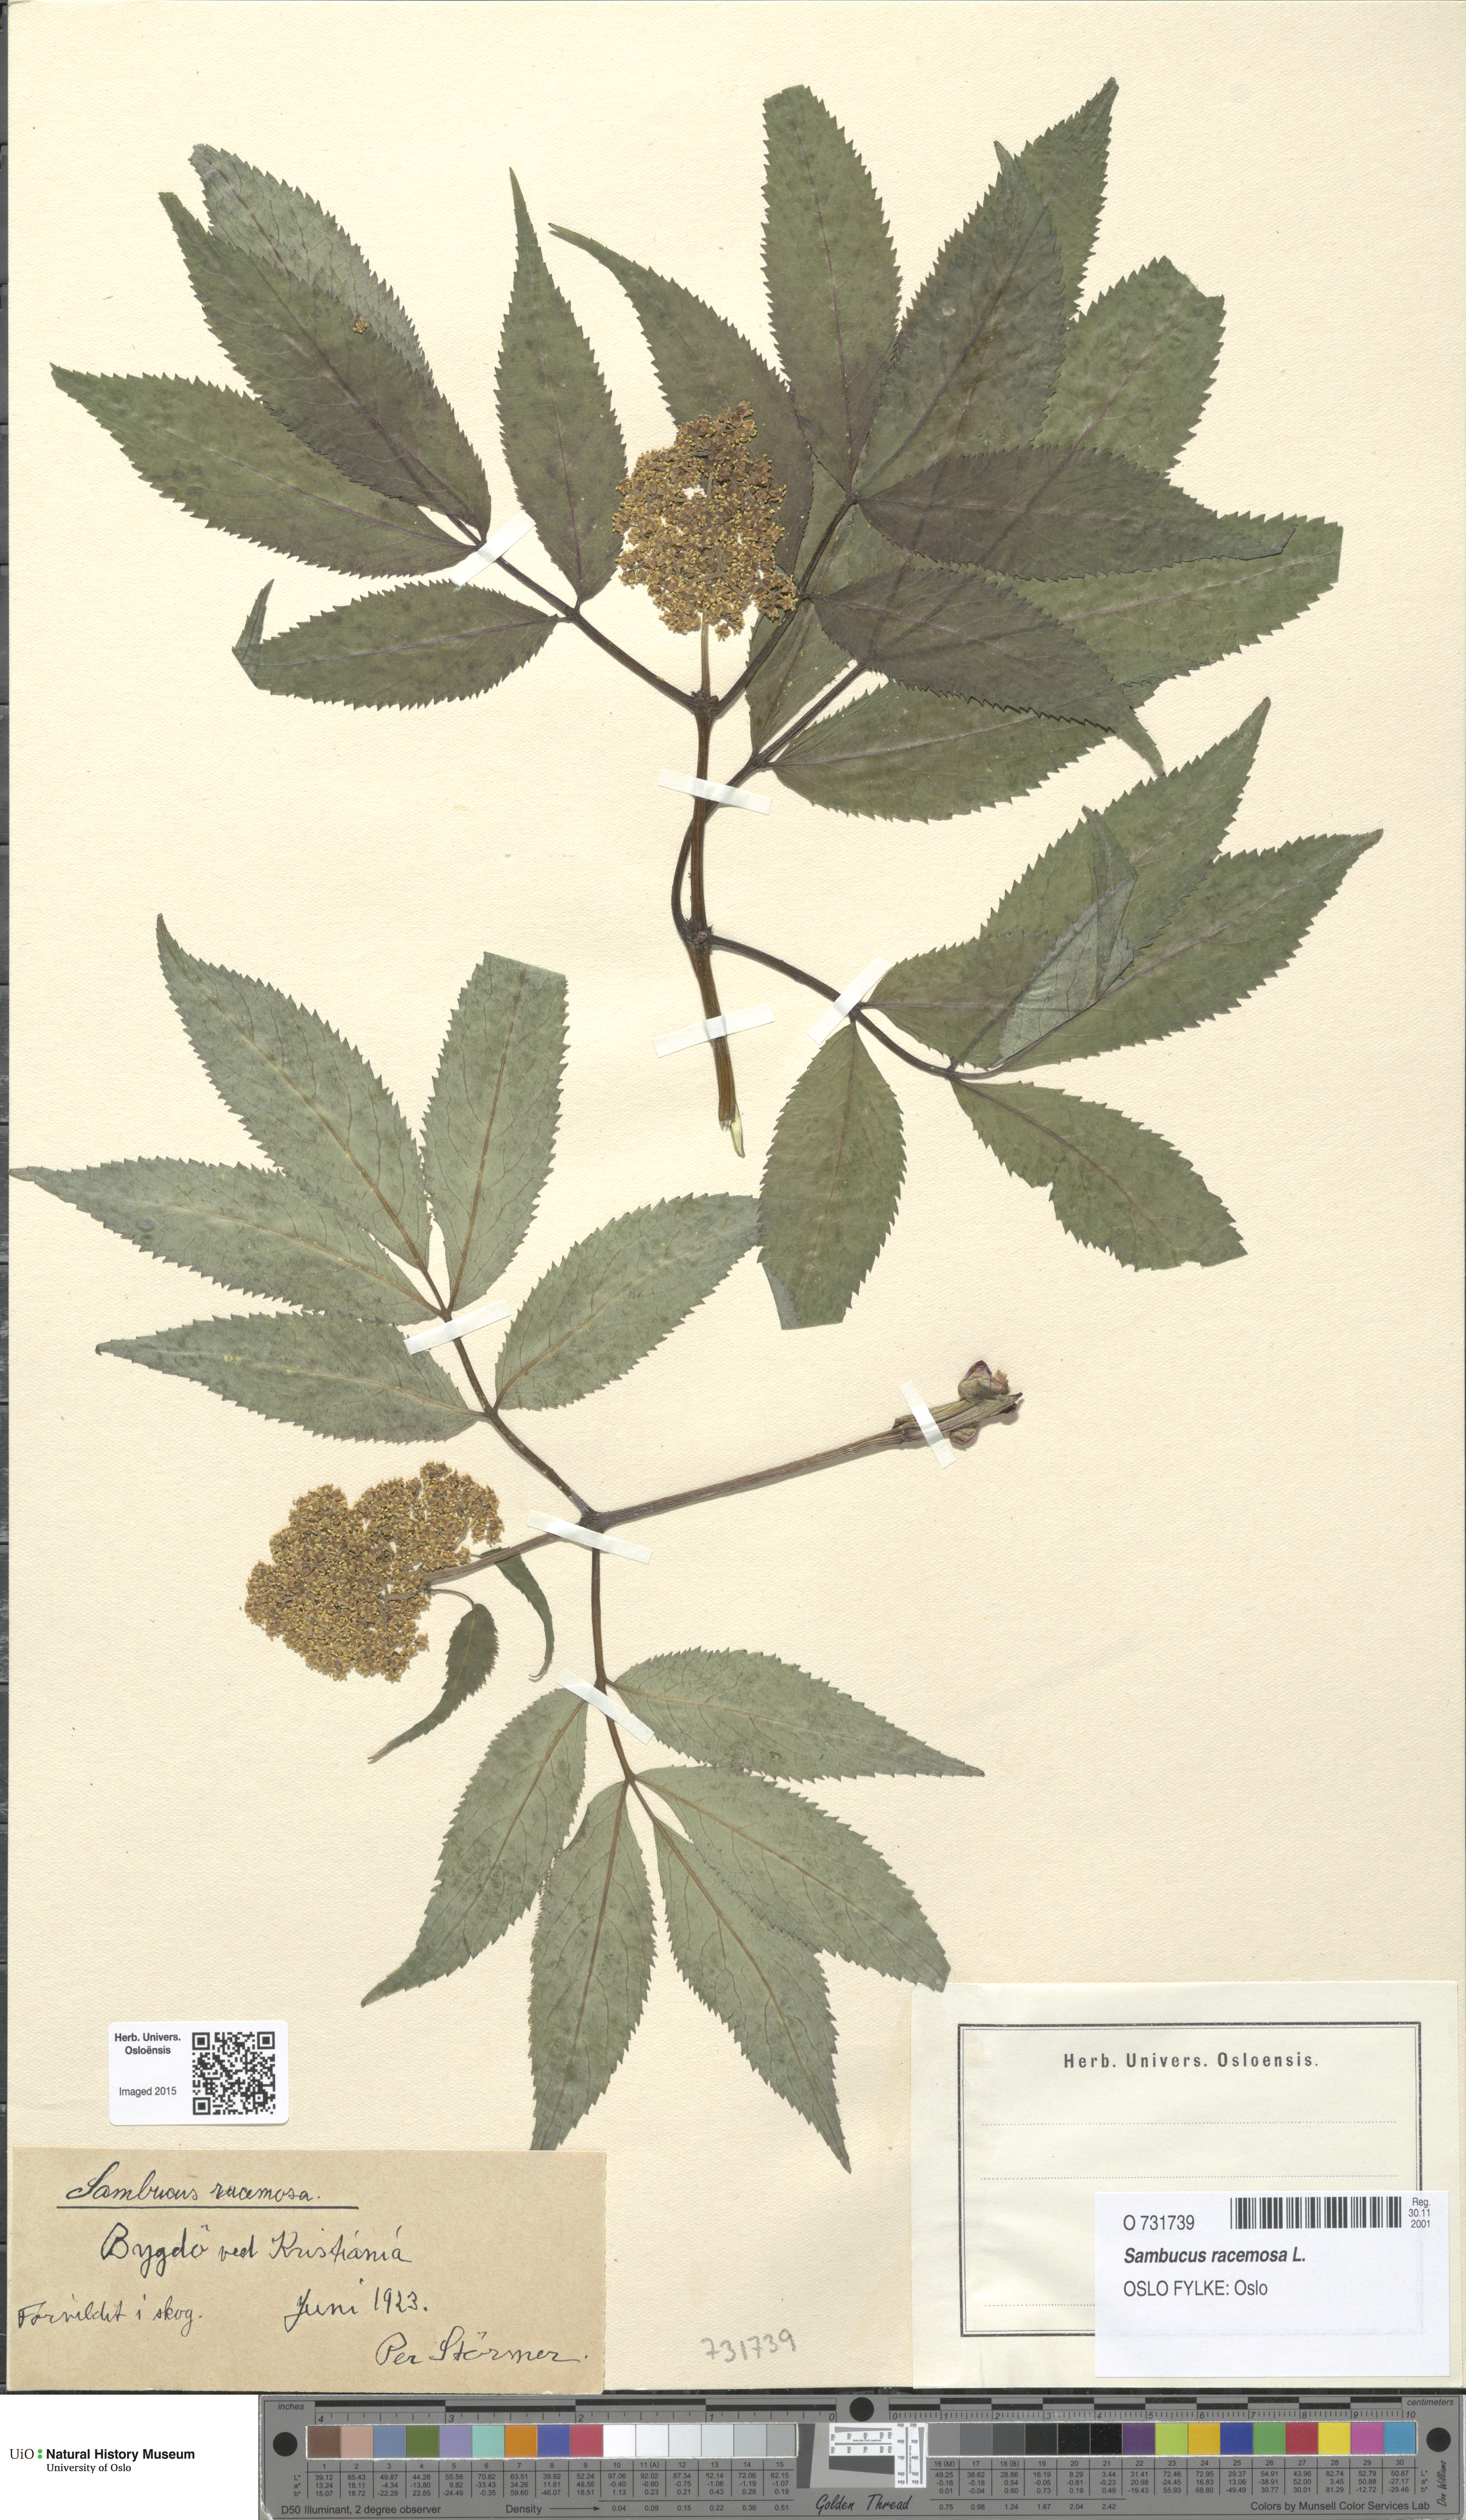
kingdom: Plantae
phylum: Tracheophyta
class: Magnoliopsida
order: Dipsacales
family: Viburnaceae
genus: Sambucus
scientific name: Sambucus racemosa
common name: Red-berried elder
